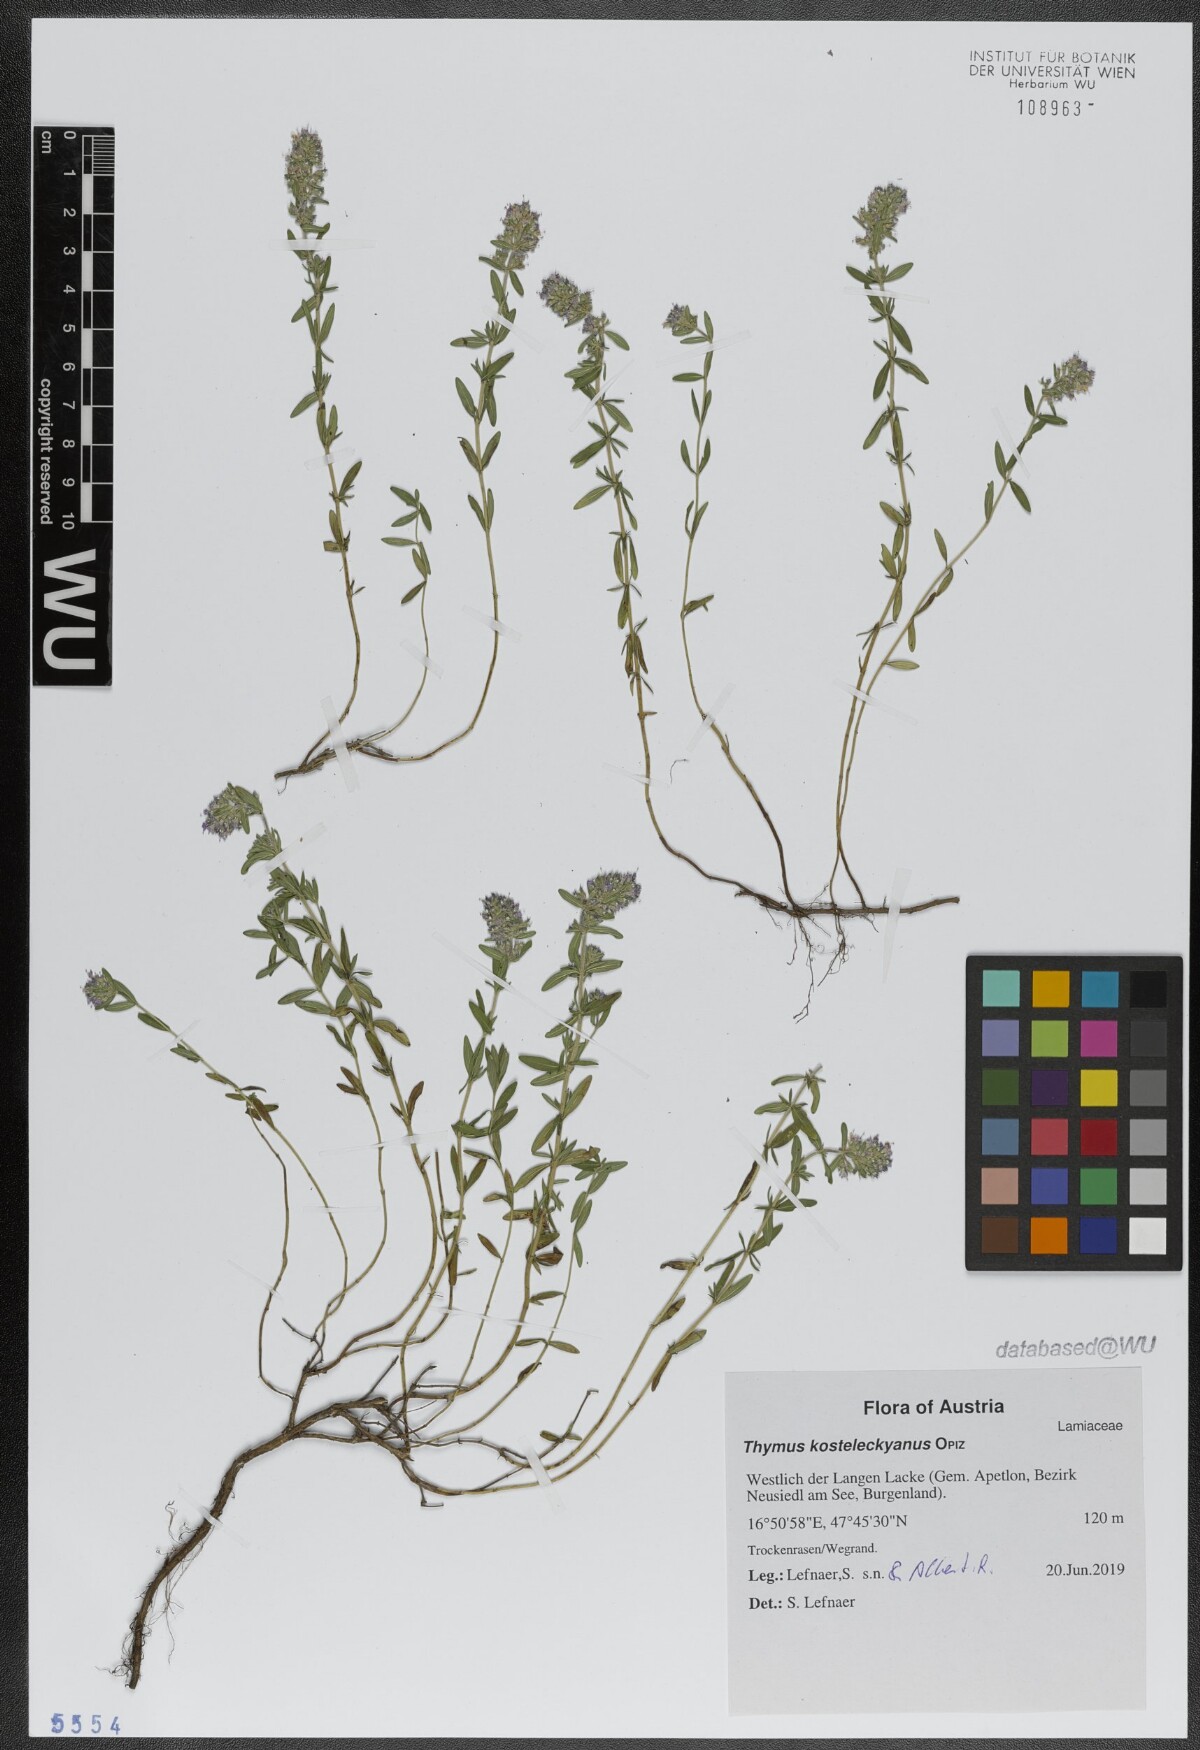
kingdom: Plantae
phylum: Tracheophyta
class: Magnoliopsida
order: Lamiales
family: Lamiaceae
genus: Thymus
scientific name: Thymus kosteleckyanus
